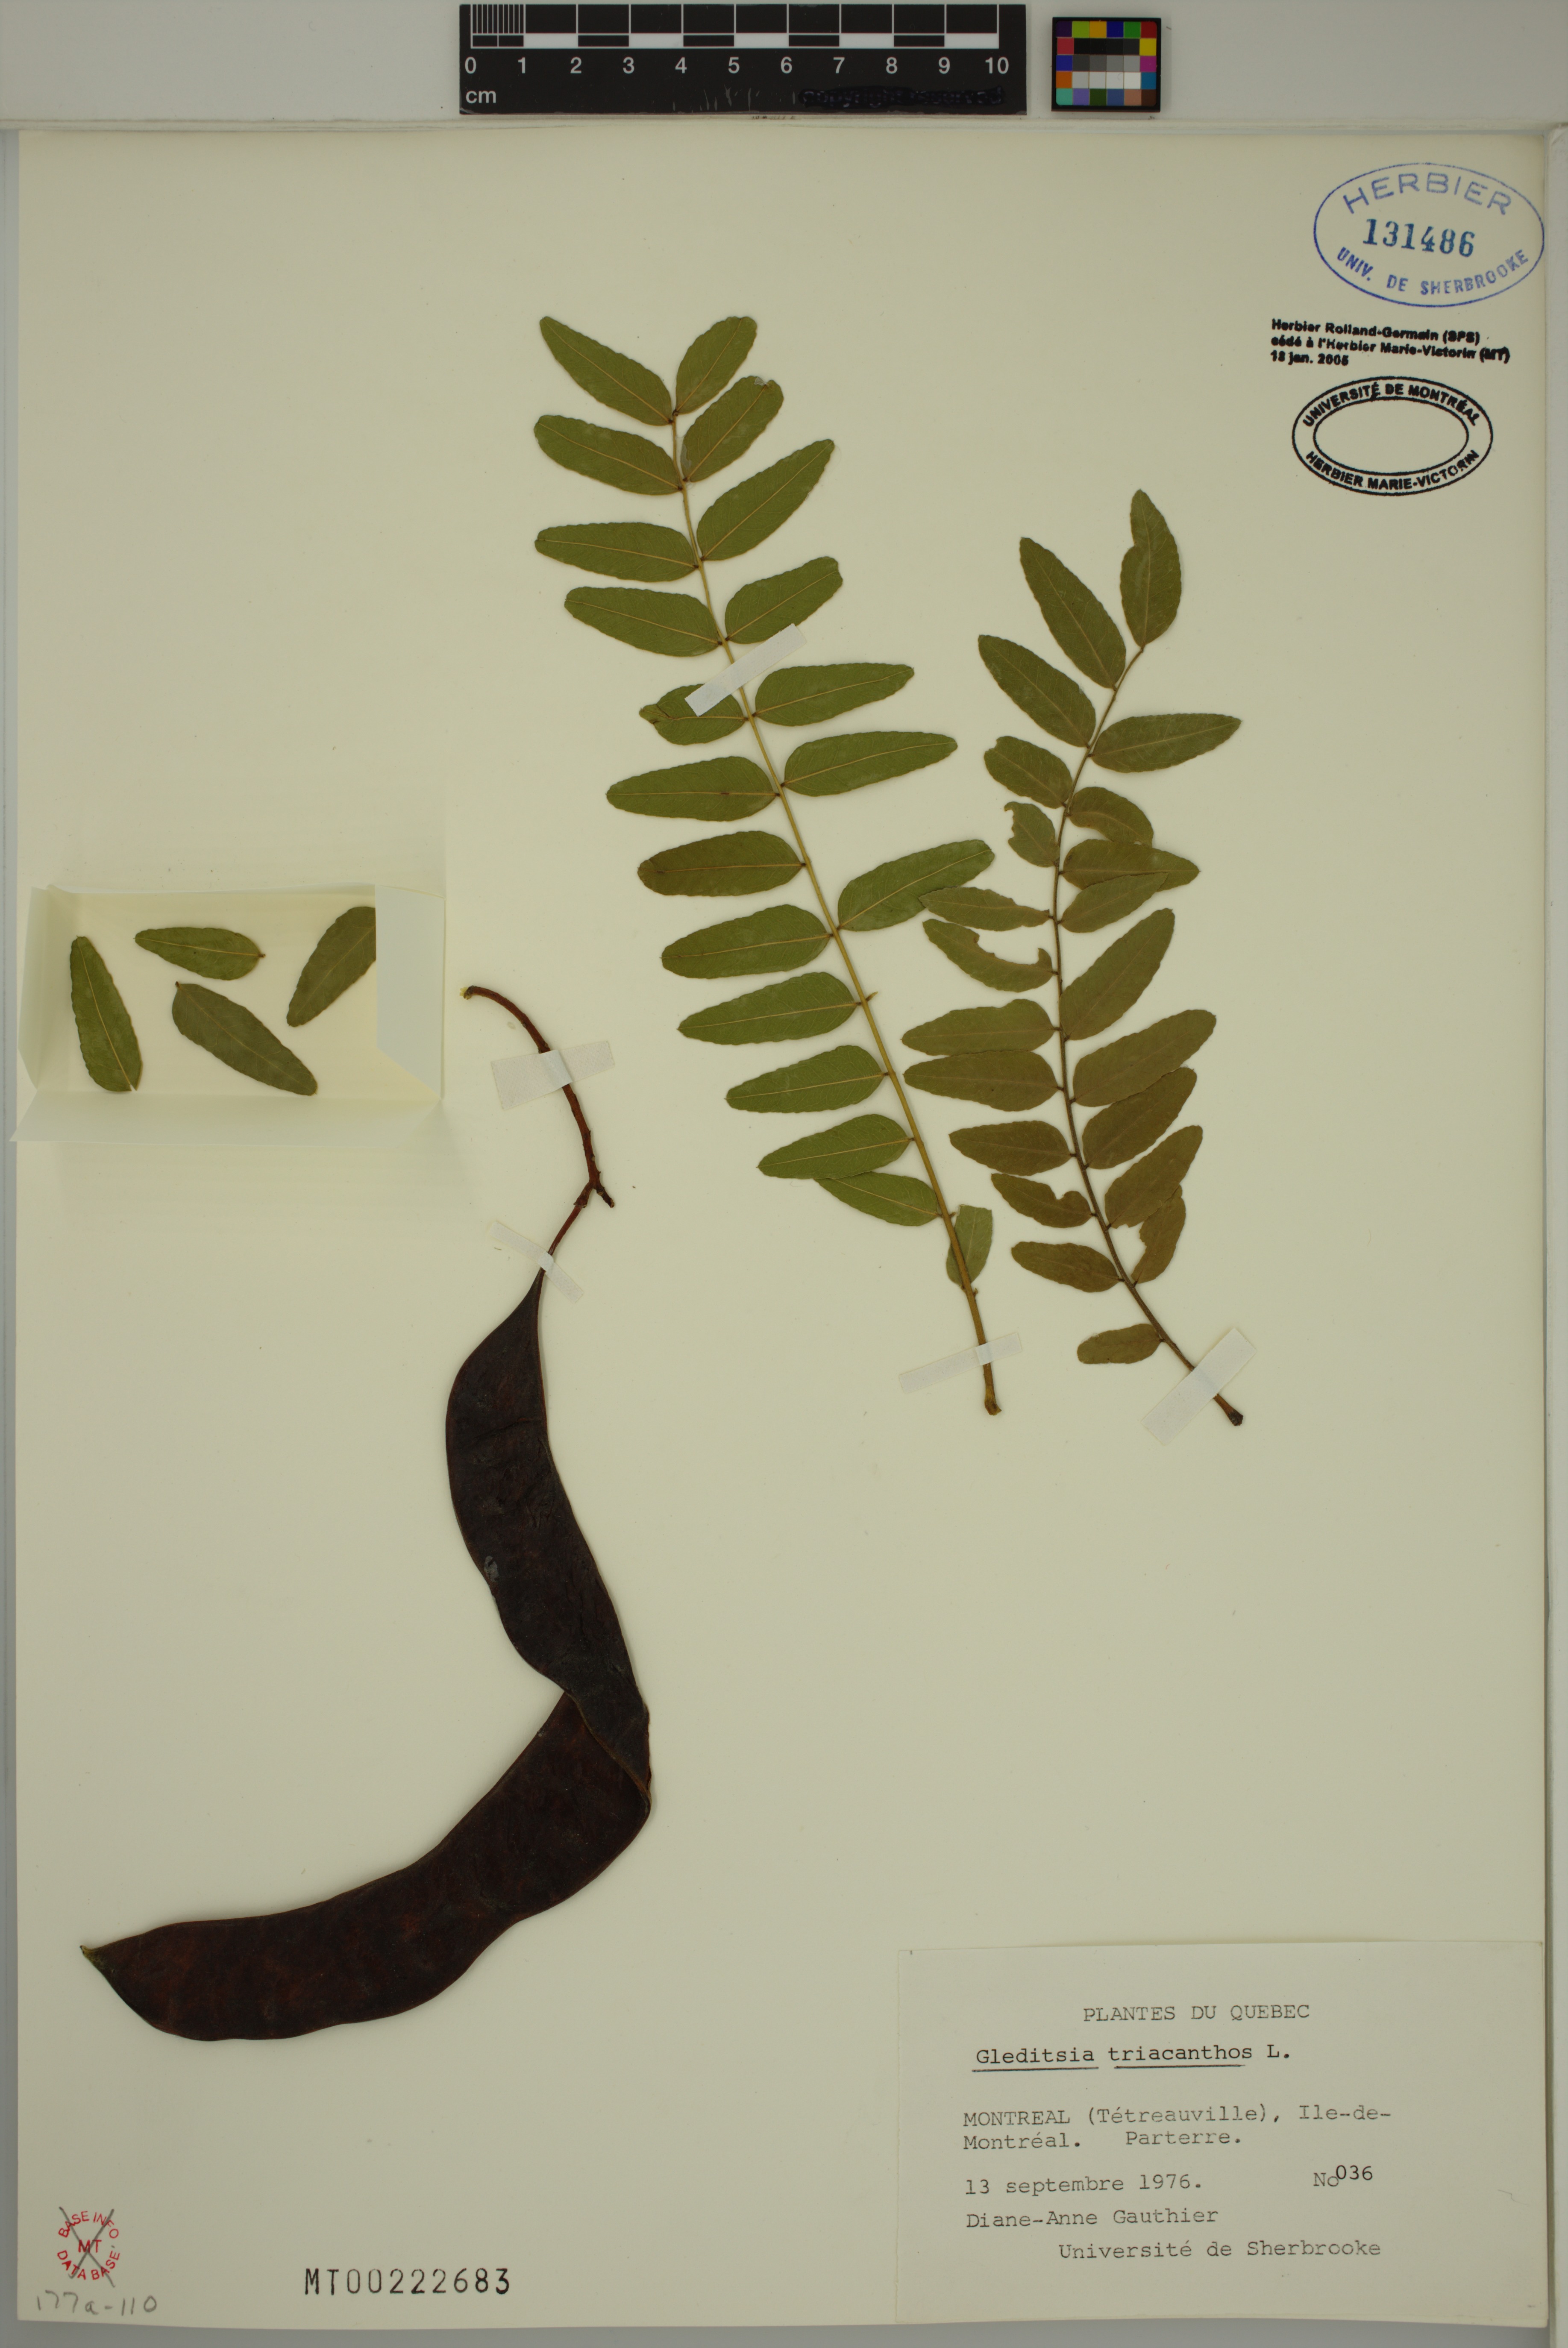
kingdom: Plantae
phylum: Tracheophyta
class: Magnoliopsida
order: Fabales
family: Fabaceae
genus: Gleditsia
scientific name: Gleditsia triacanthos
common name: Common honeylocust
